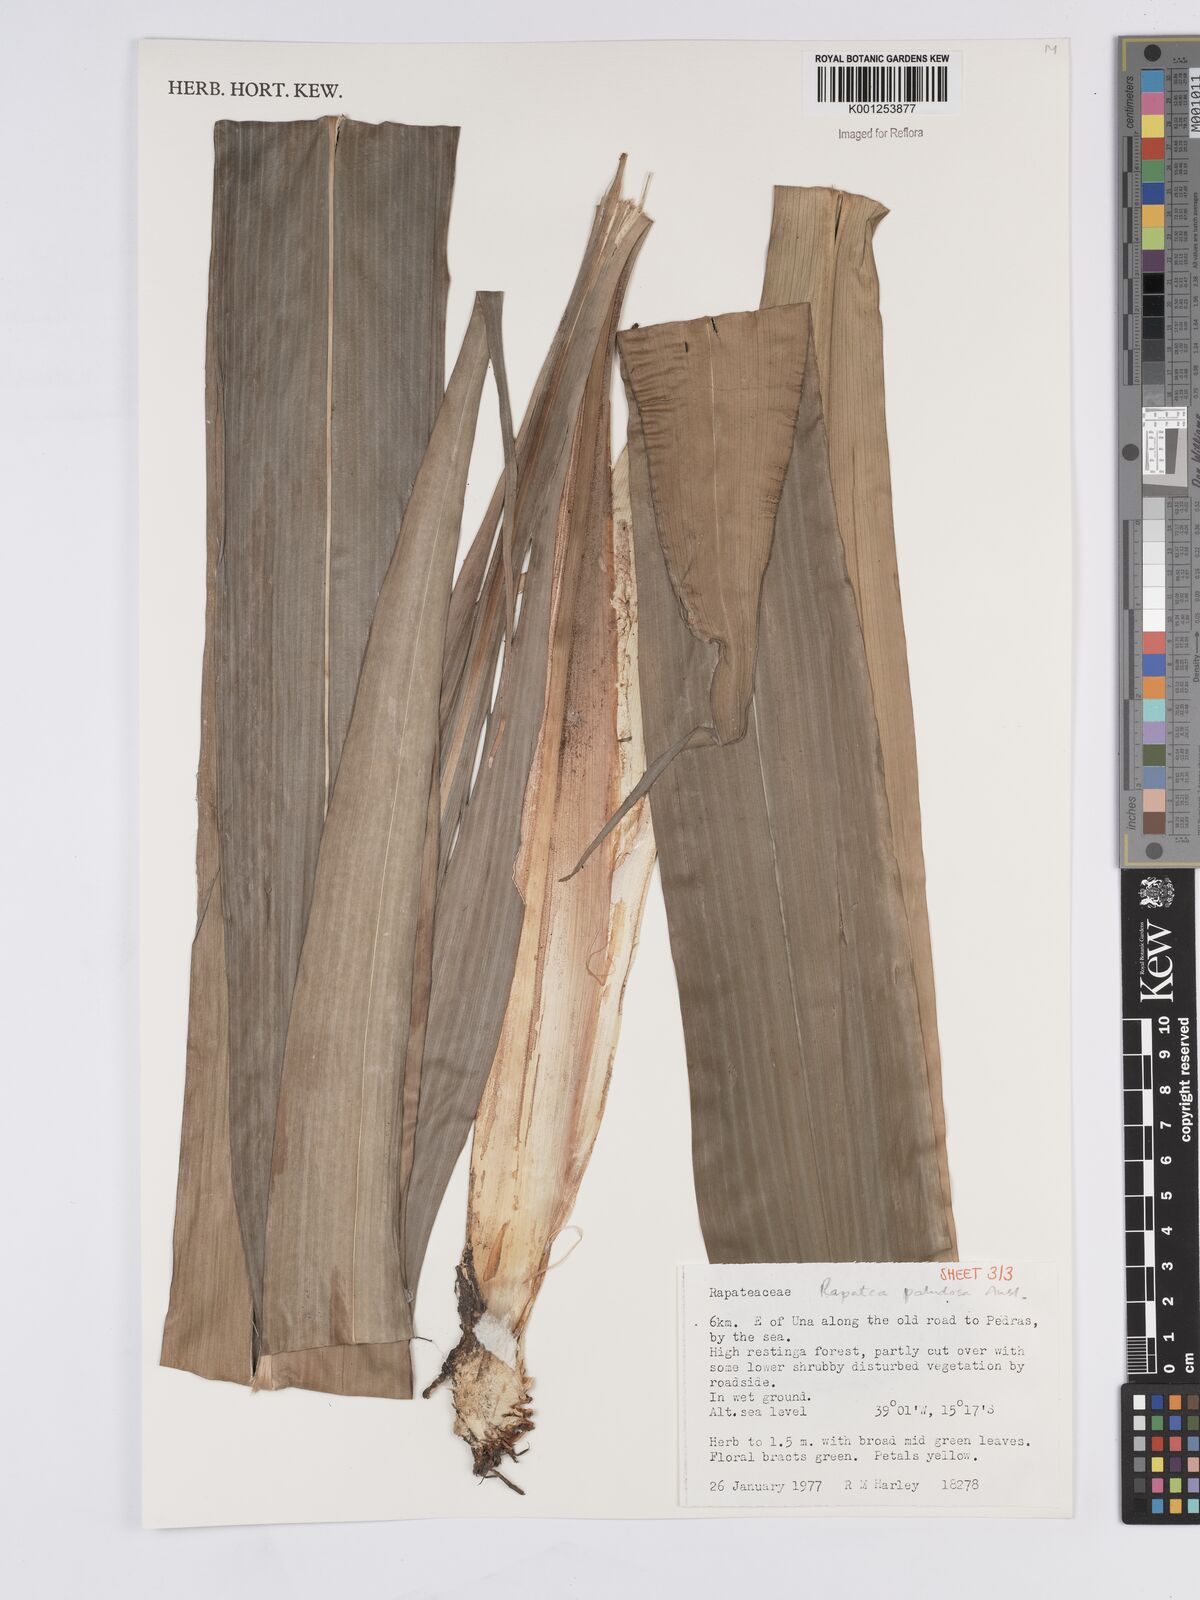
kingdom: Plantae
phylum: Tracheophyta
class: Liliopsida
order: Poales
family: Rapateaceae
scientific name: Rapateaceae
